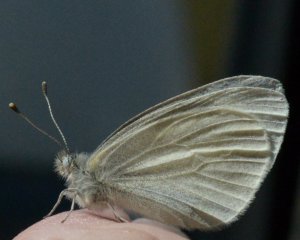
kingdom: Animalia
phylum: Arthropoda
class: Insecta
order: Lepidoptera
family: Pieridae
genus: Pieris
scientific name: Pieris virginiensis
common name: West Virginia White
